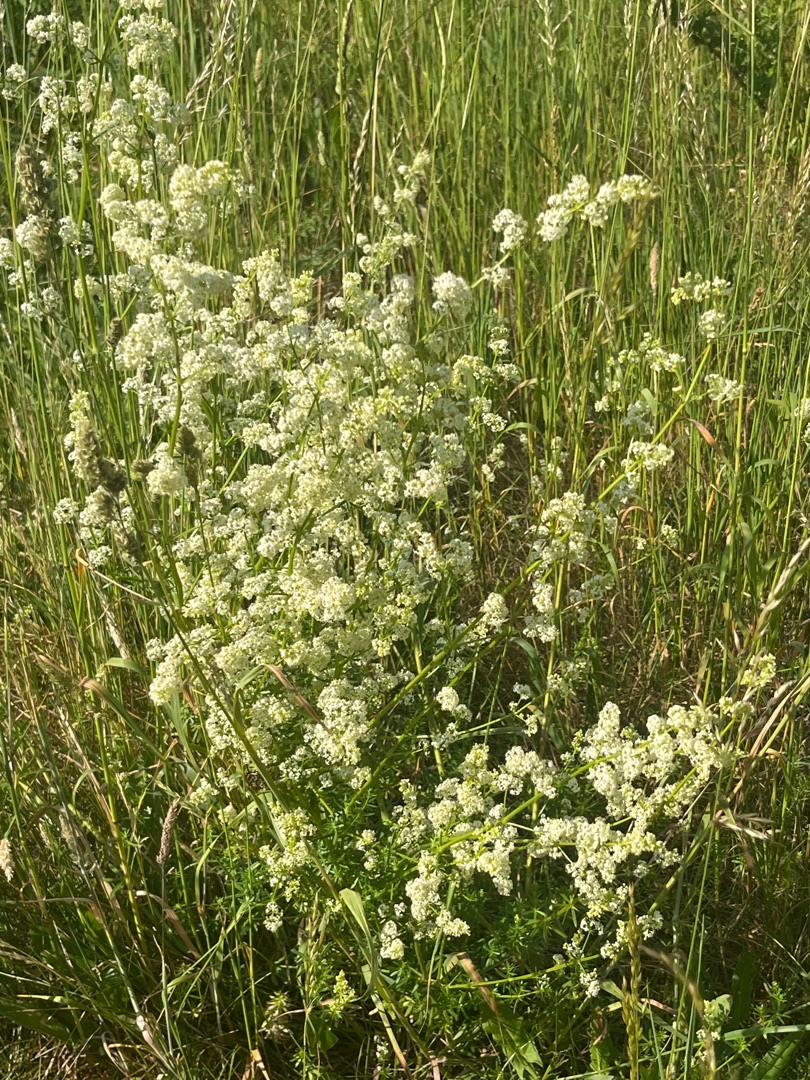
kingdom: Plantae
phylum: Tracheophyta
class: Magnoliopsida
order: Gentianales
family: Rubiaceae
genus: Galium
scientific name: Galium mollugo
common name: Hvid snerre
